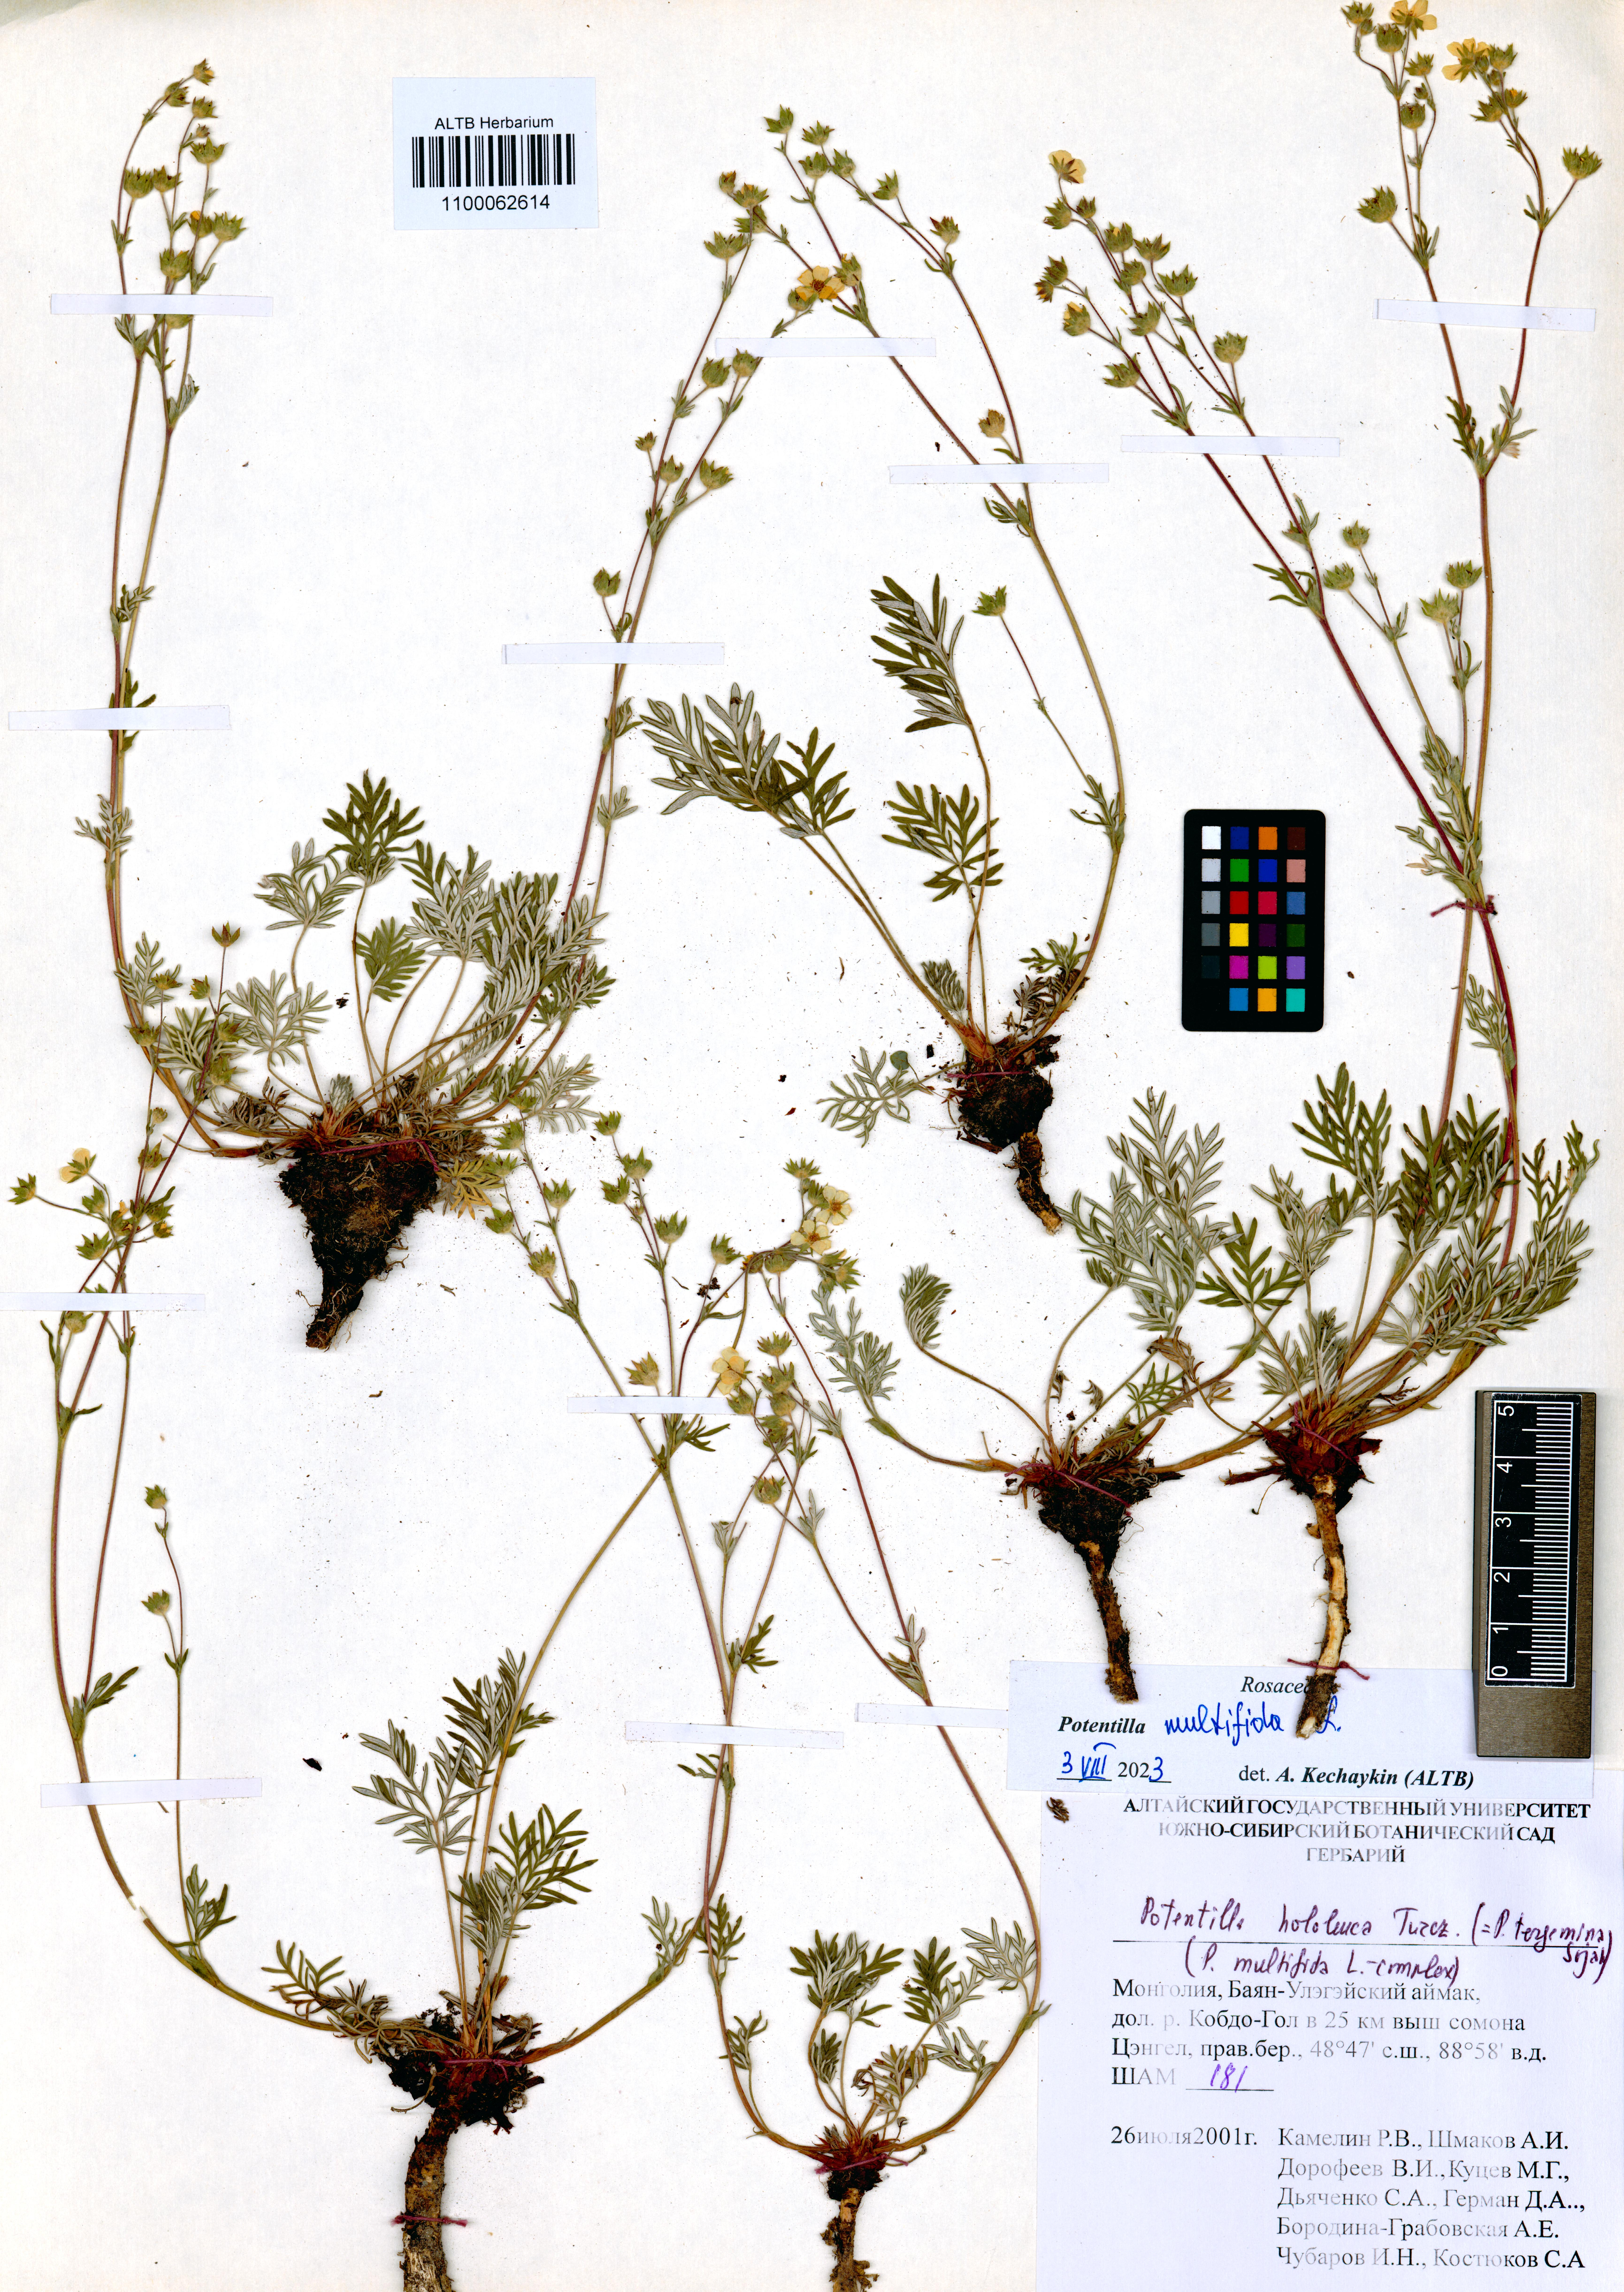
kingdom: Plantae
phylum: Tracheophyta
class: Magnoliopsida
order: Rosales
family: Rosaceae
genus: Potentilla
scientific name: Potentilla multifida
